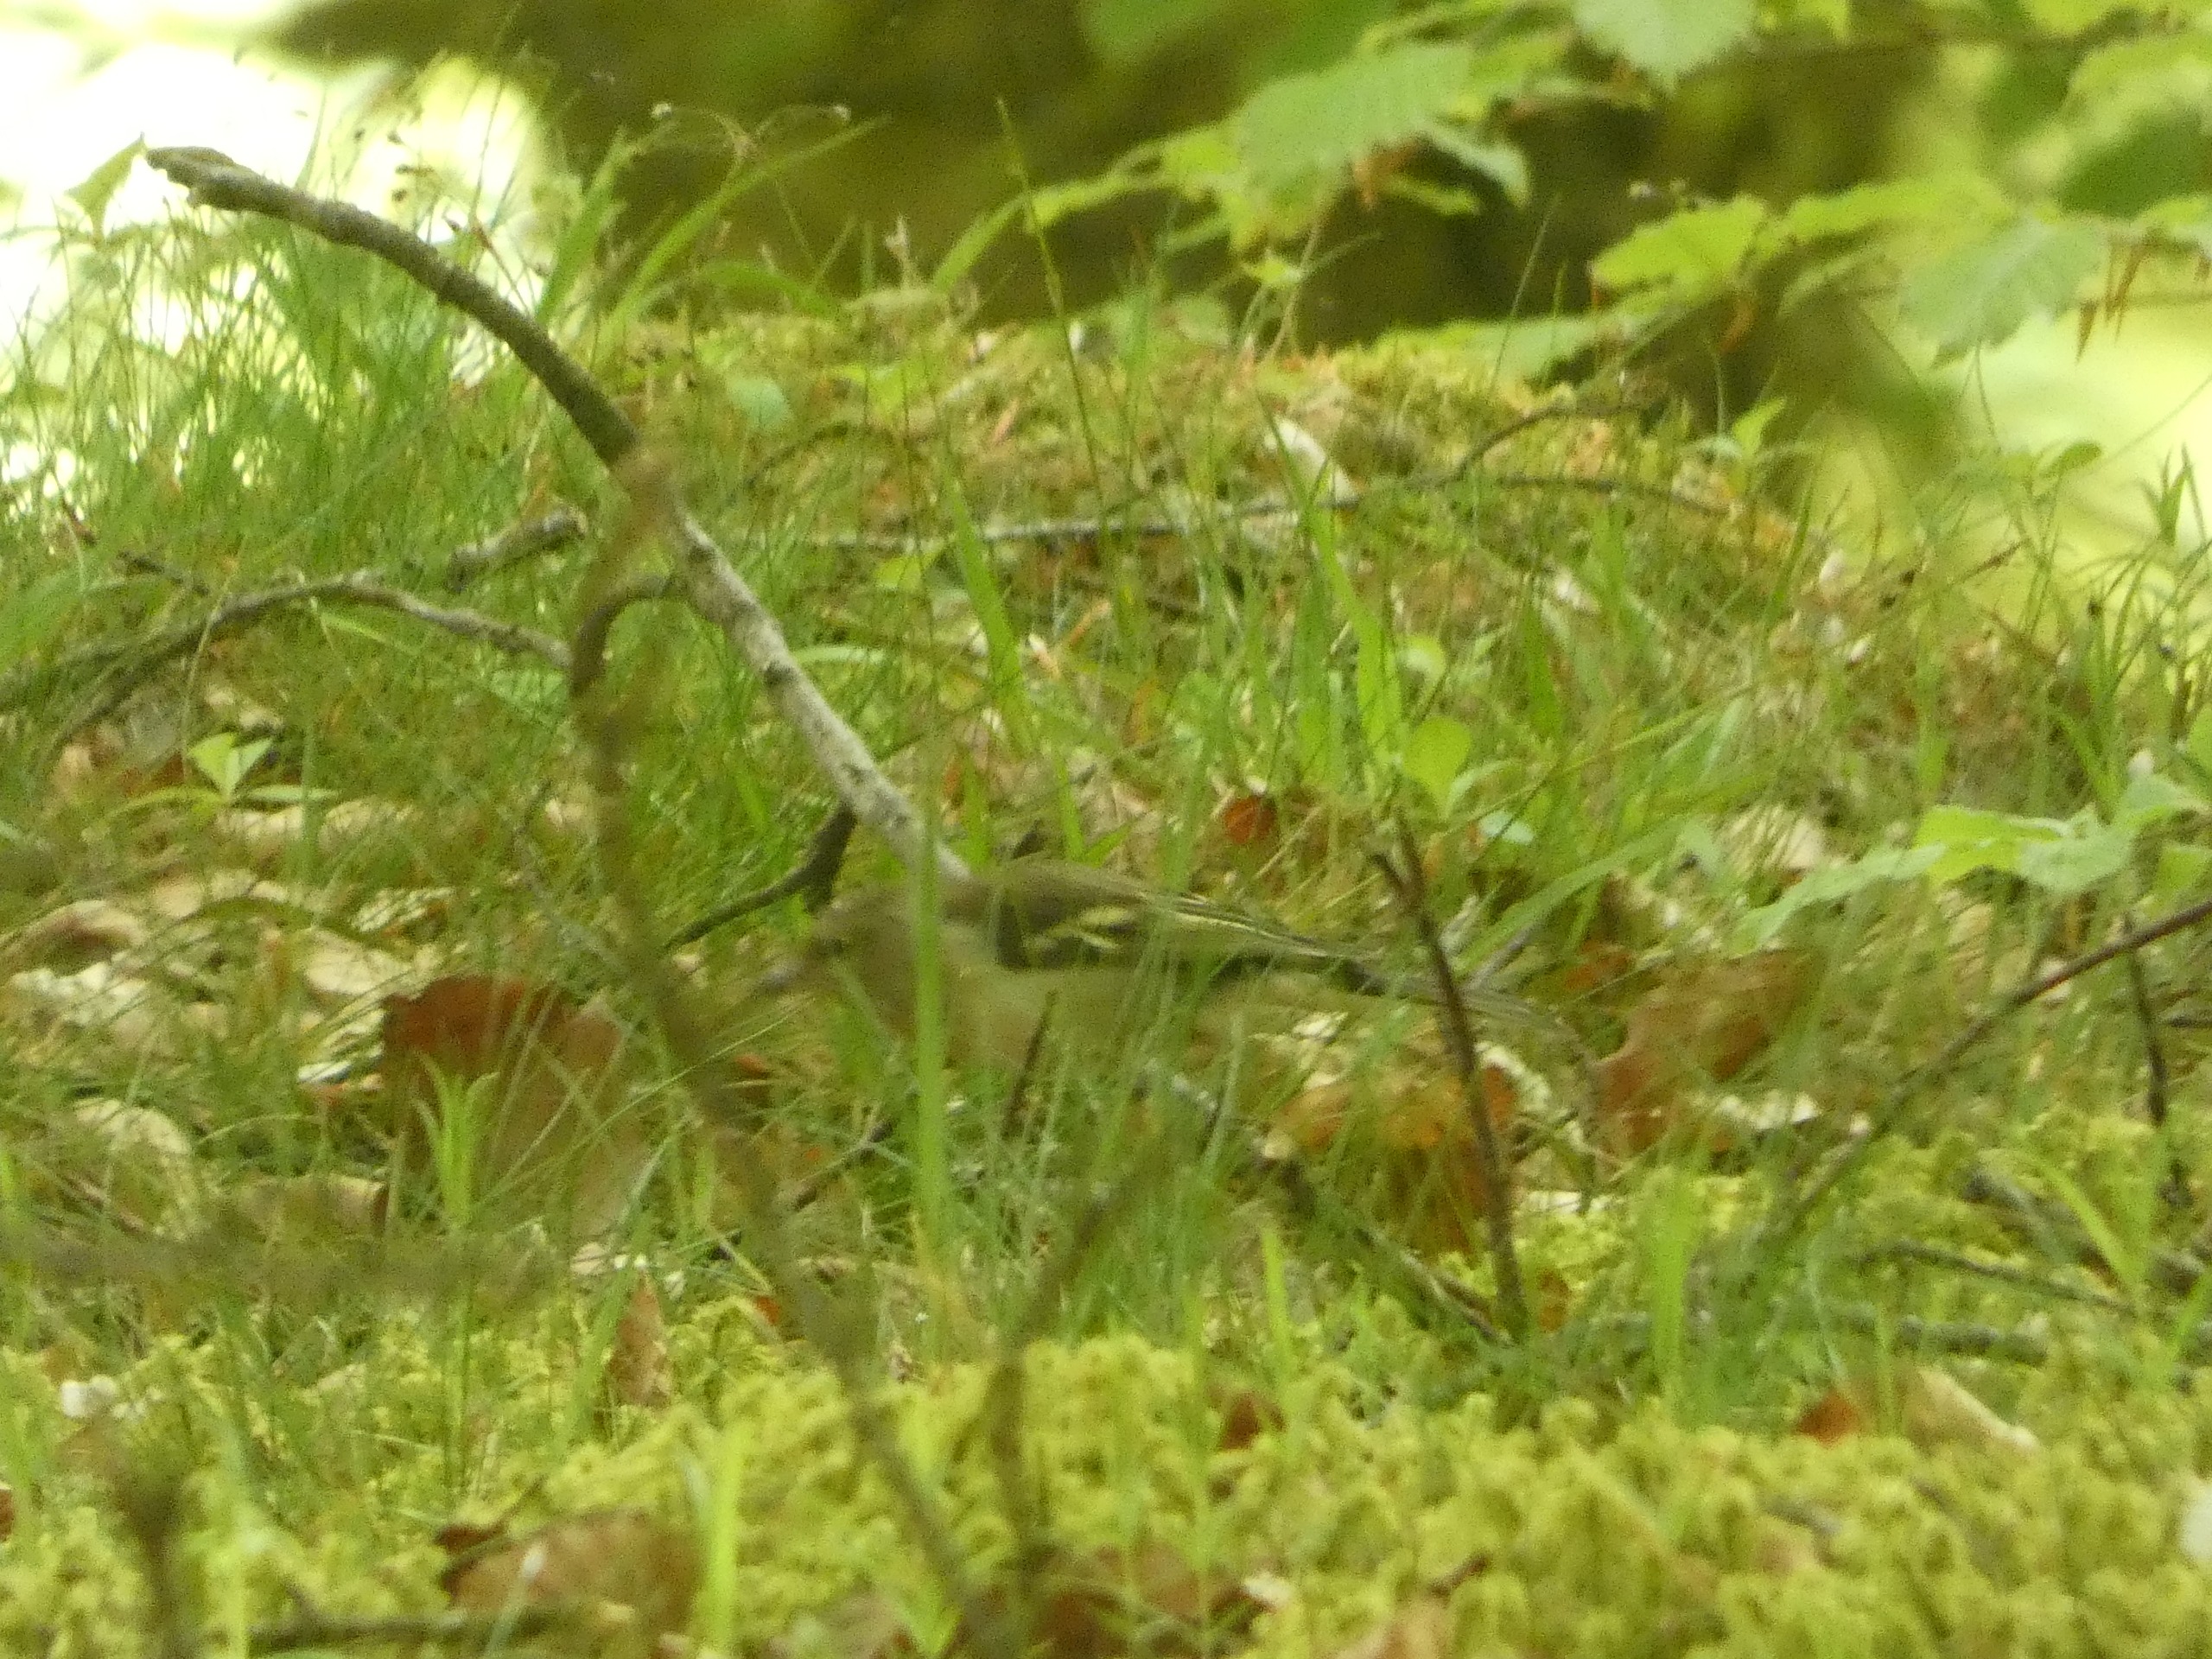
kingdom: Animalia
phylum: Chordata
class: Aves
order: Passeriformes
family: Fringillidae
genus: Fringilla
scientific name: Fringilla coelebs
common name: Bogfinke
